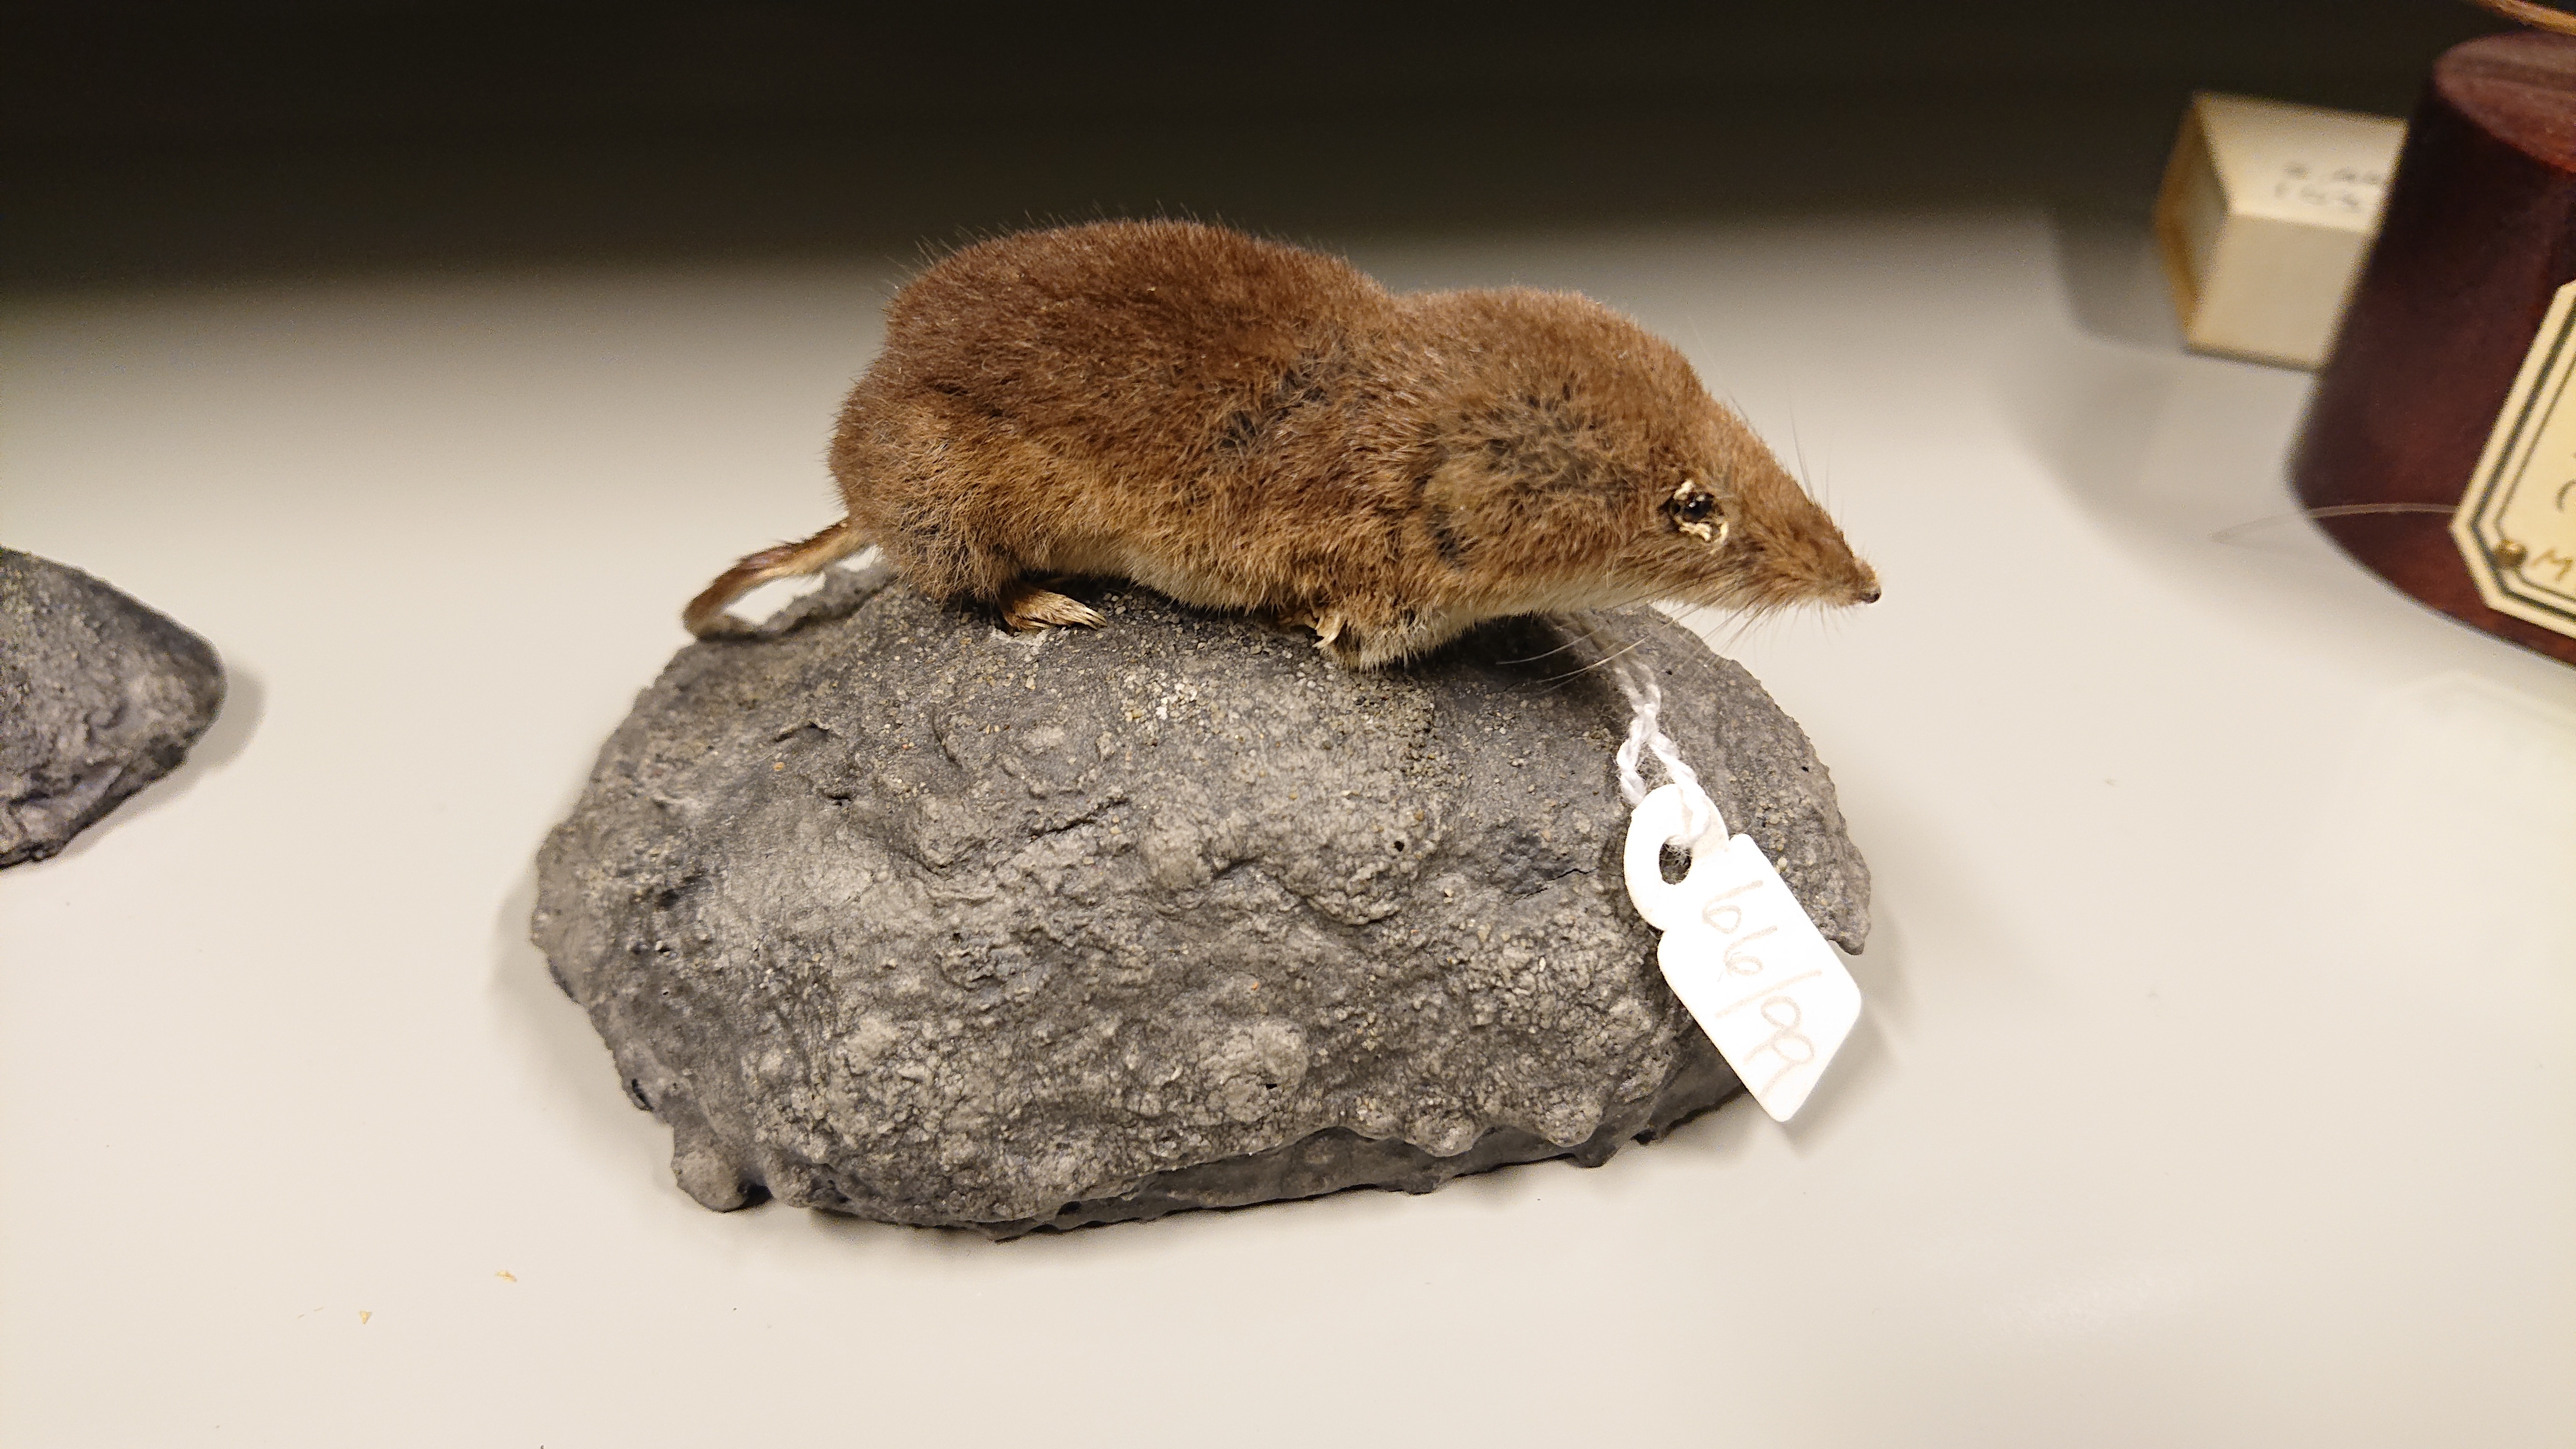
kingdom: Animalia
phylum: Chordata
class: Mammalia
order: Soricomorpha
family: Soricidae
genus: Sorex
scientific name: Sorex araneus
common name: Common shrew
